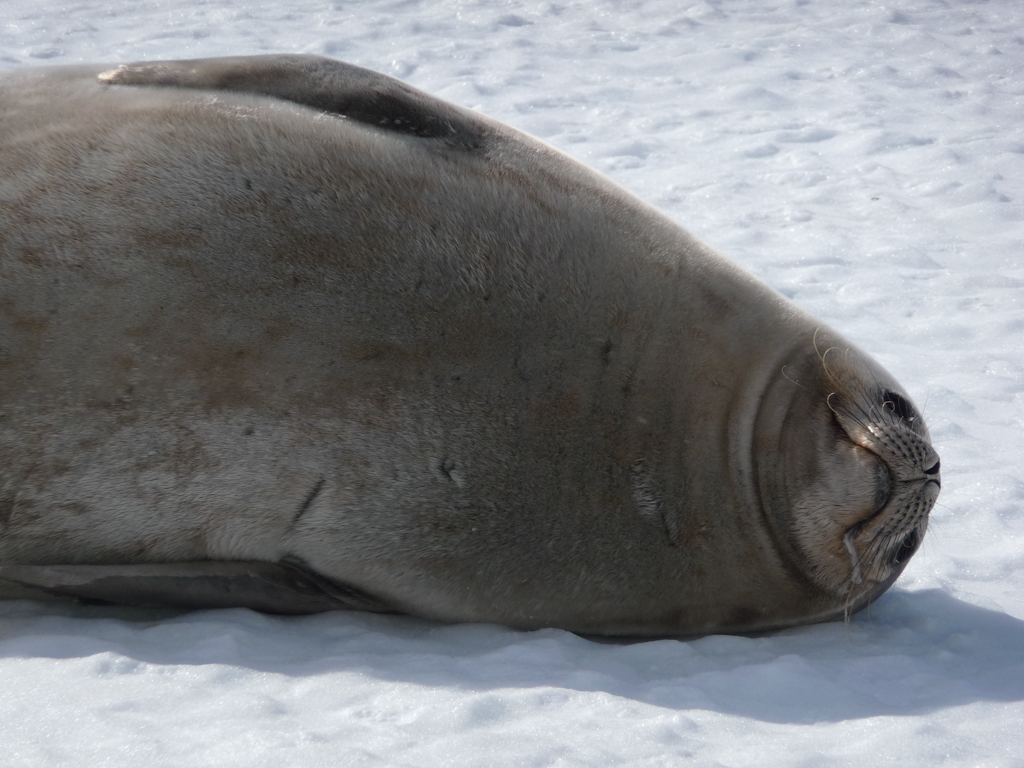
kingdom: Animalia
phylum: Chordata
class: Mammalia
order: Carnivora
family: Phocidae
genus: Leptonychotes
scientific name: Leptonychotes weddellii
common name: Weddell Seal
